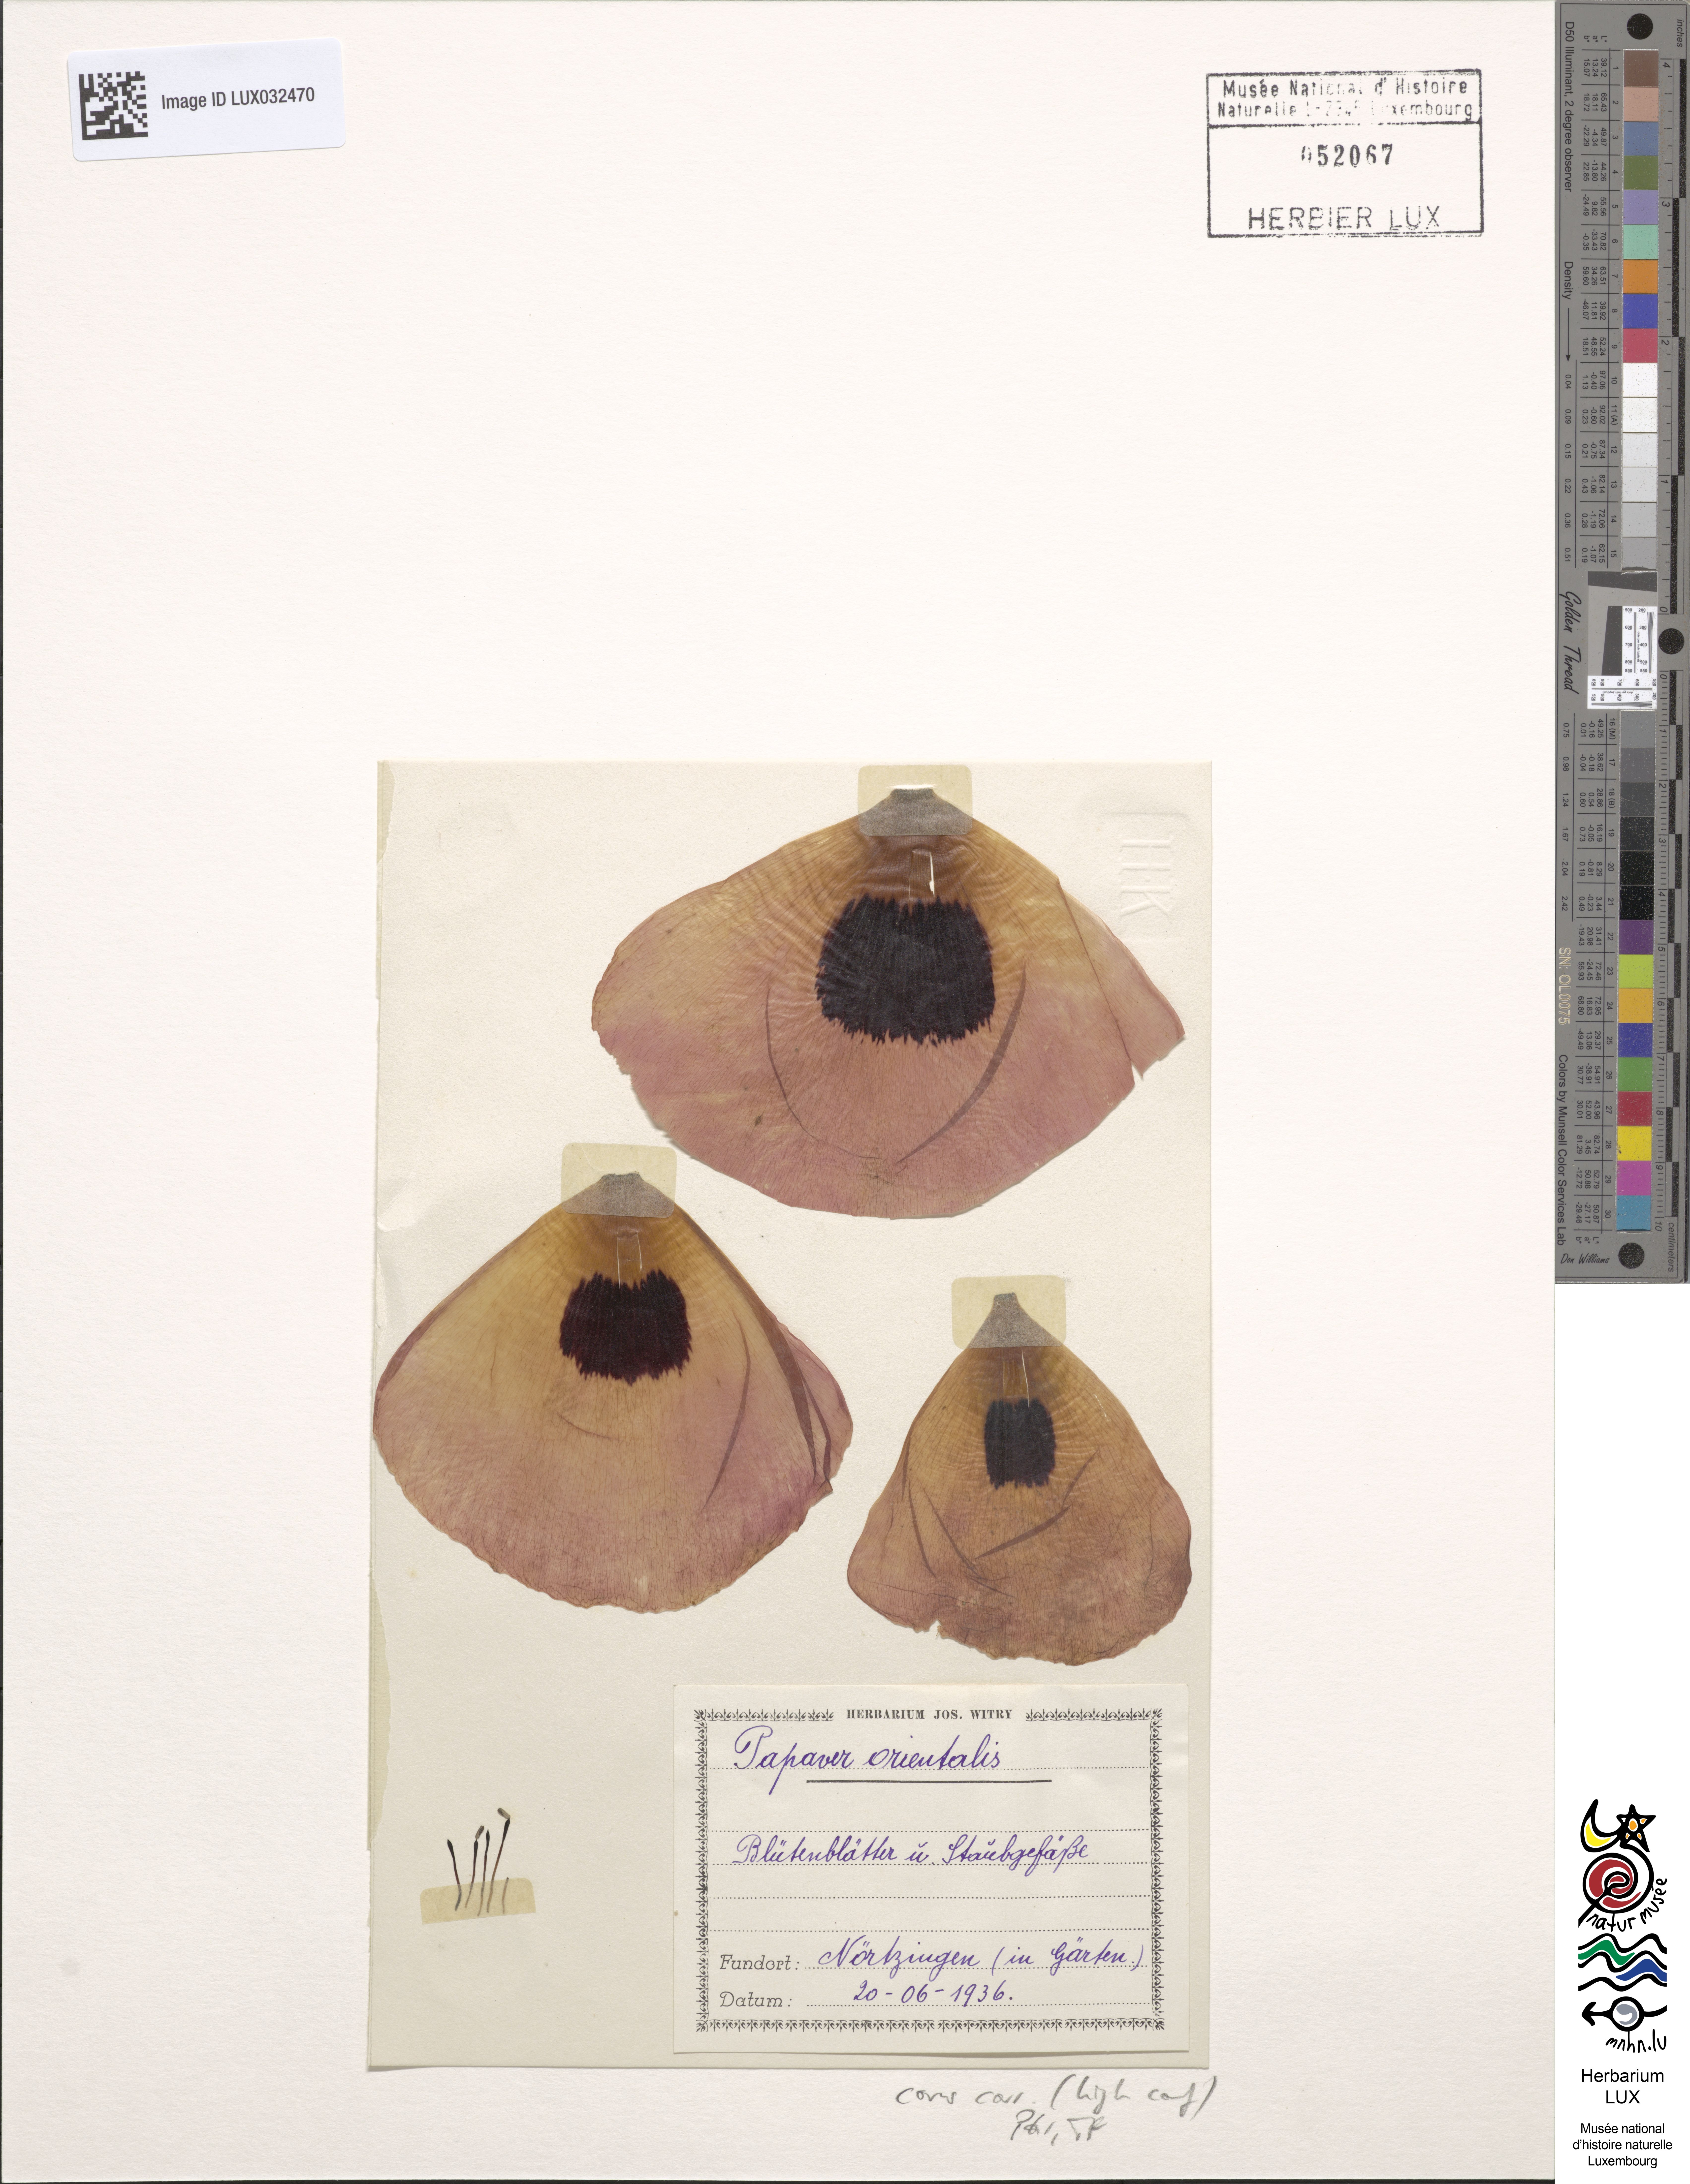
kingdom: Plantae
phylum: Tracheophyta
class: Magnoliopsida
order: Ranunculales
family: Papaveraceae
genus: Papaver
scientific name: Papaver orientale
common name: Oriental poppy
